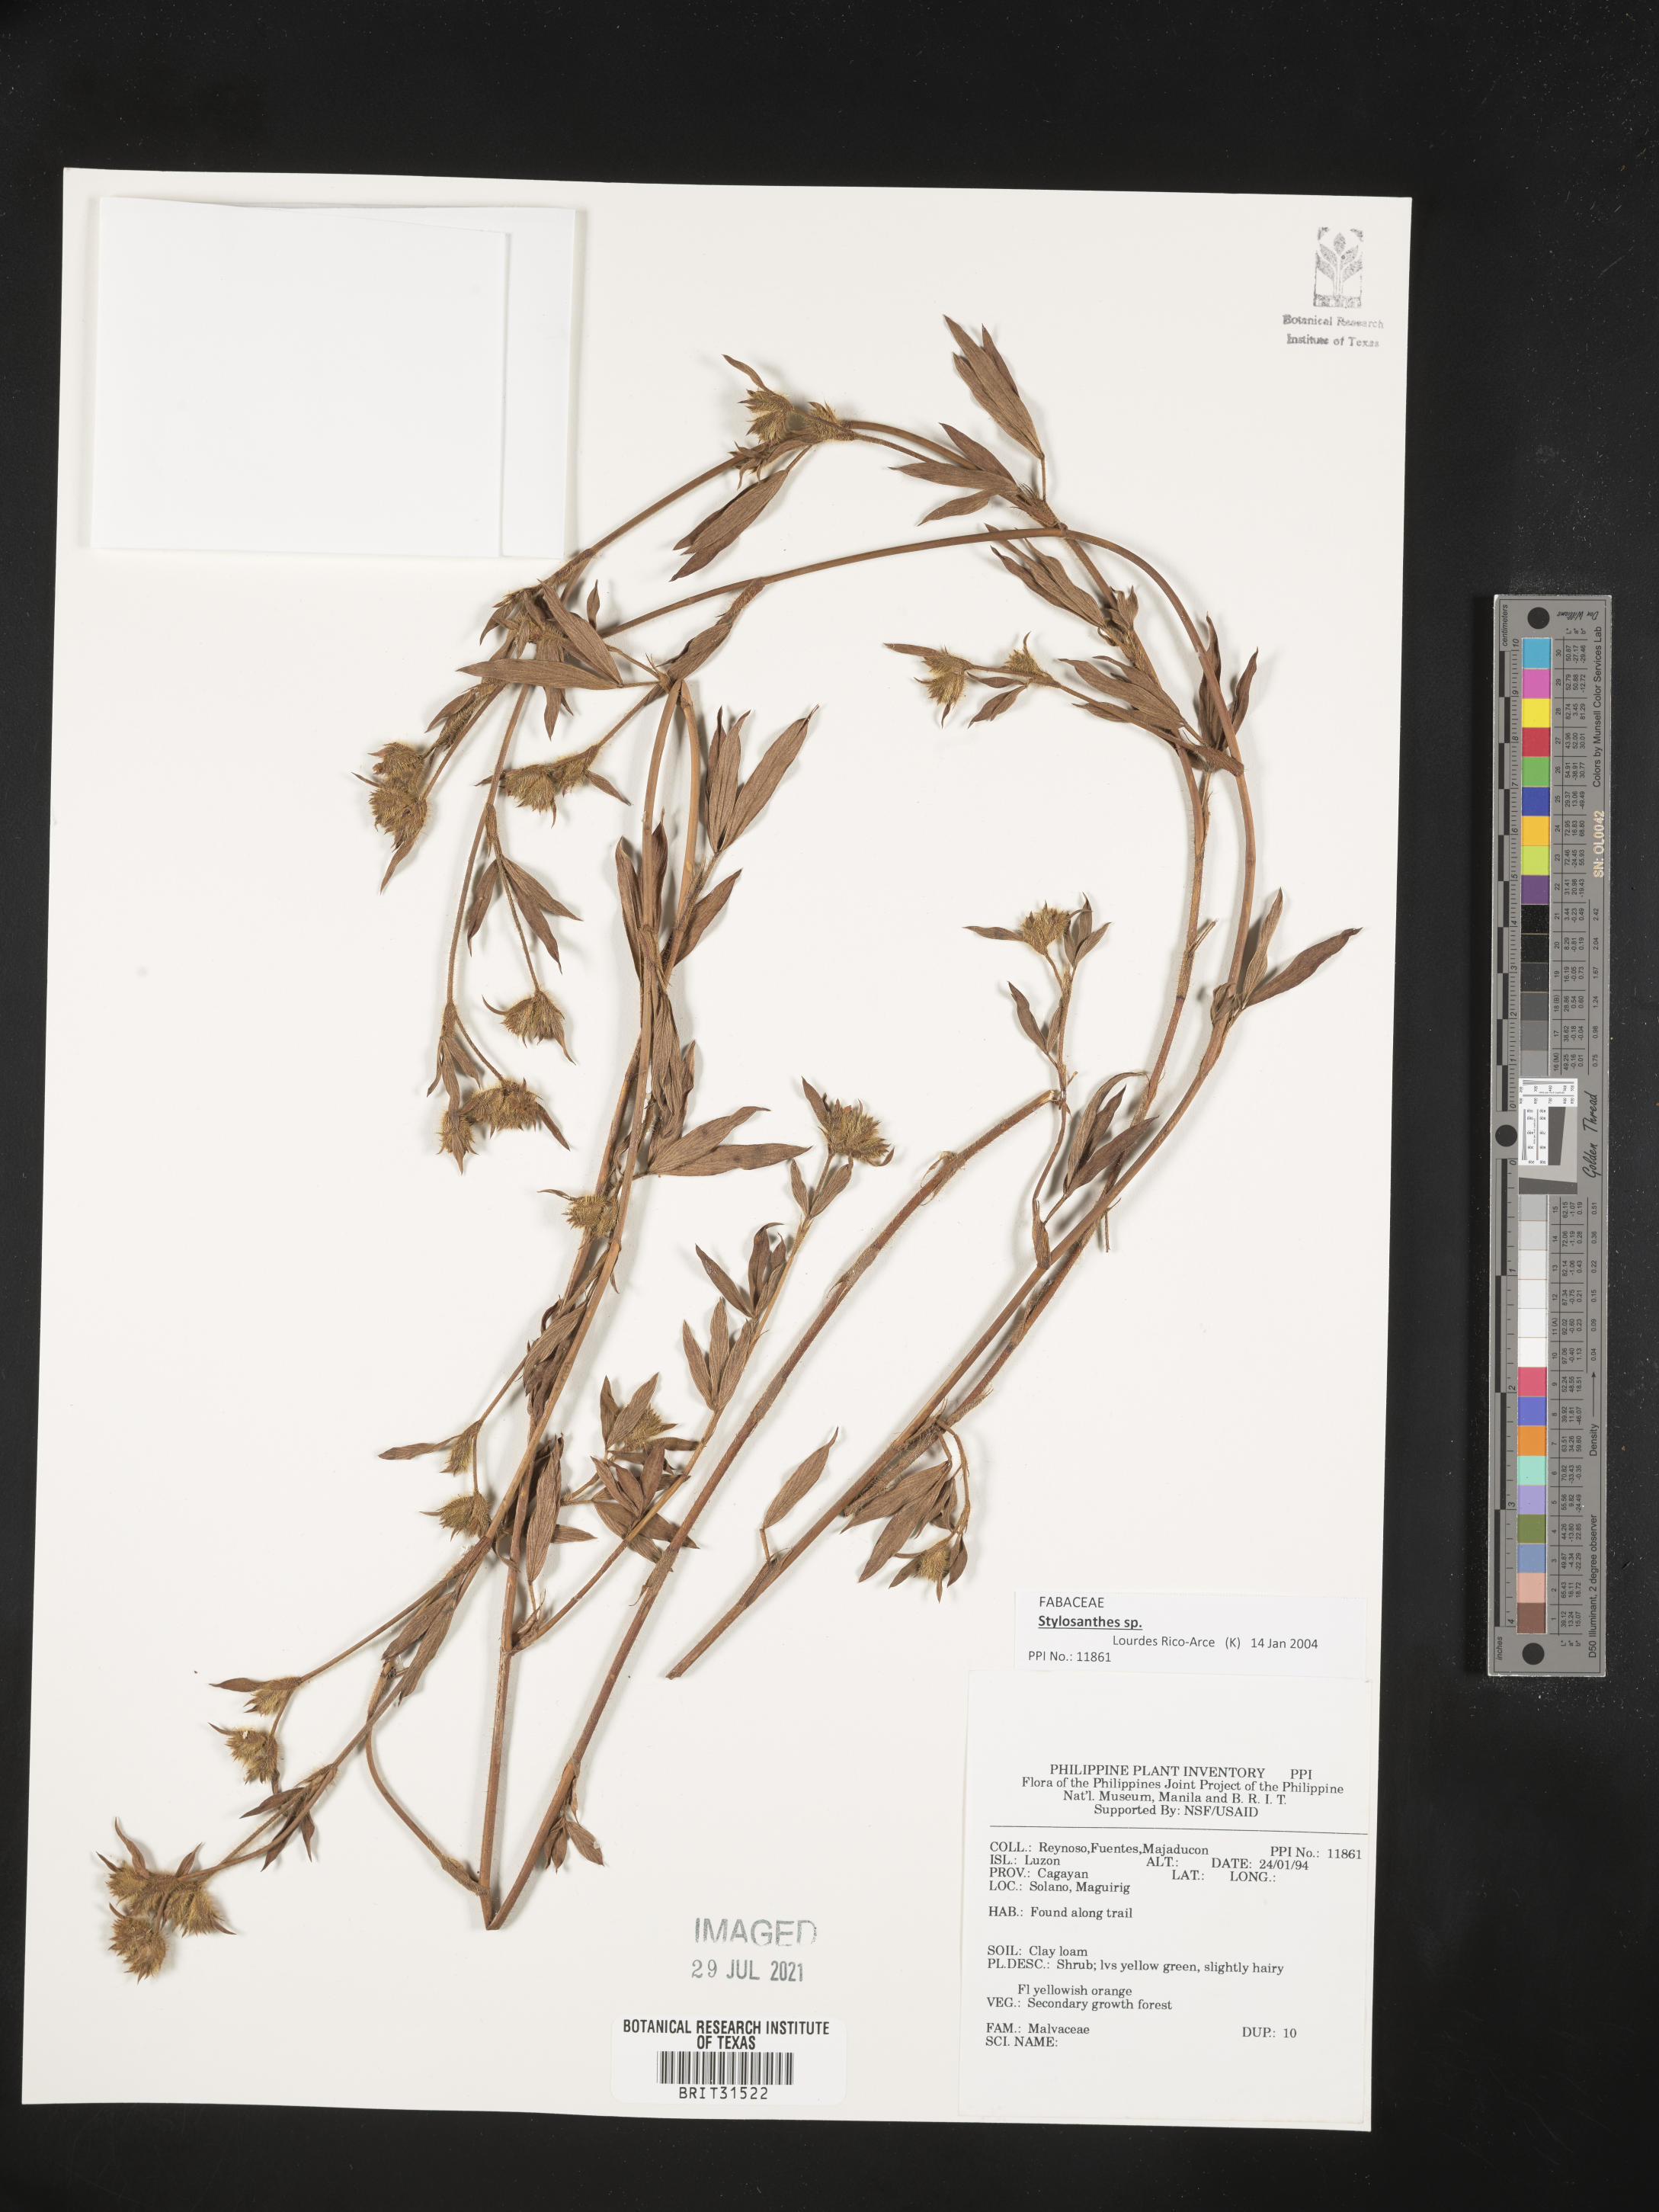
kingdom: Plantae
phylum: Tracheophyta
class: Magnoliopsida
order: Malvales
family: Malvaceae
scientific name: Malvaceae
